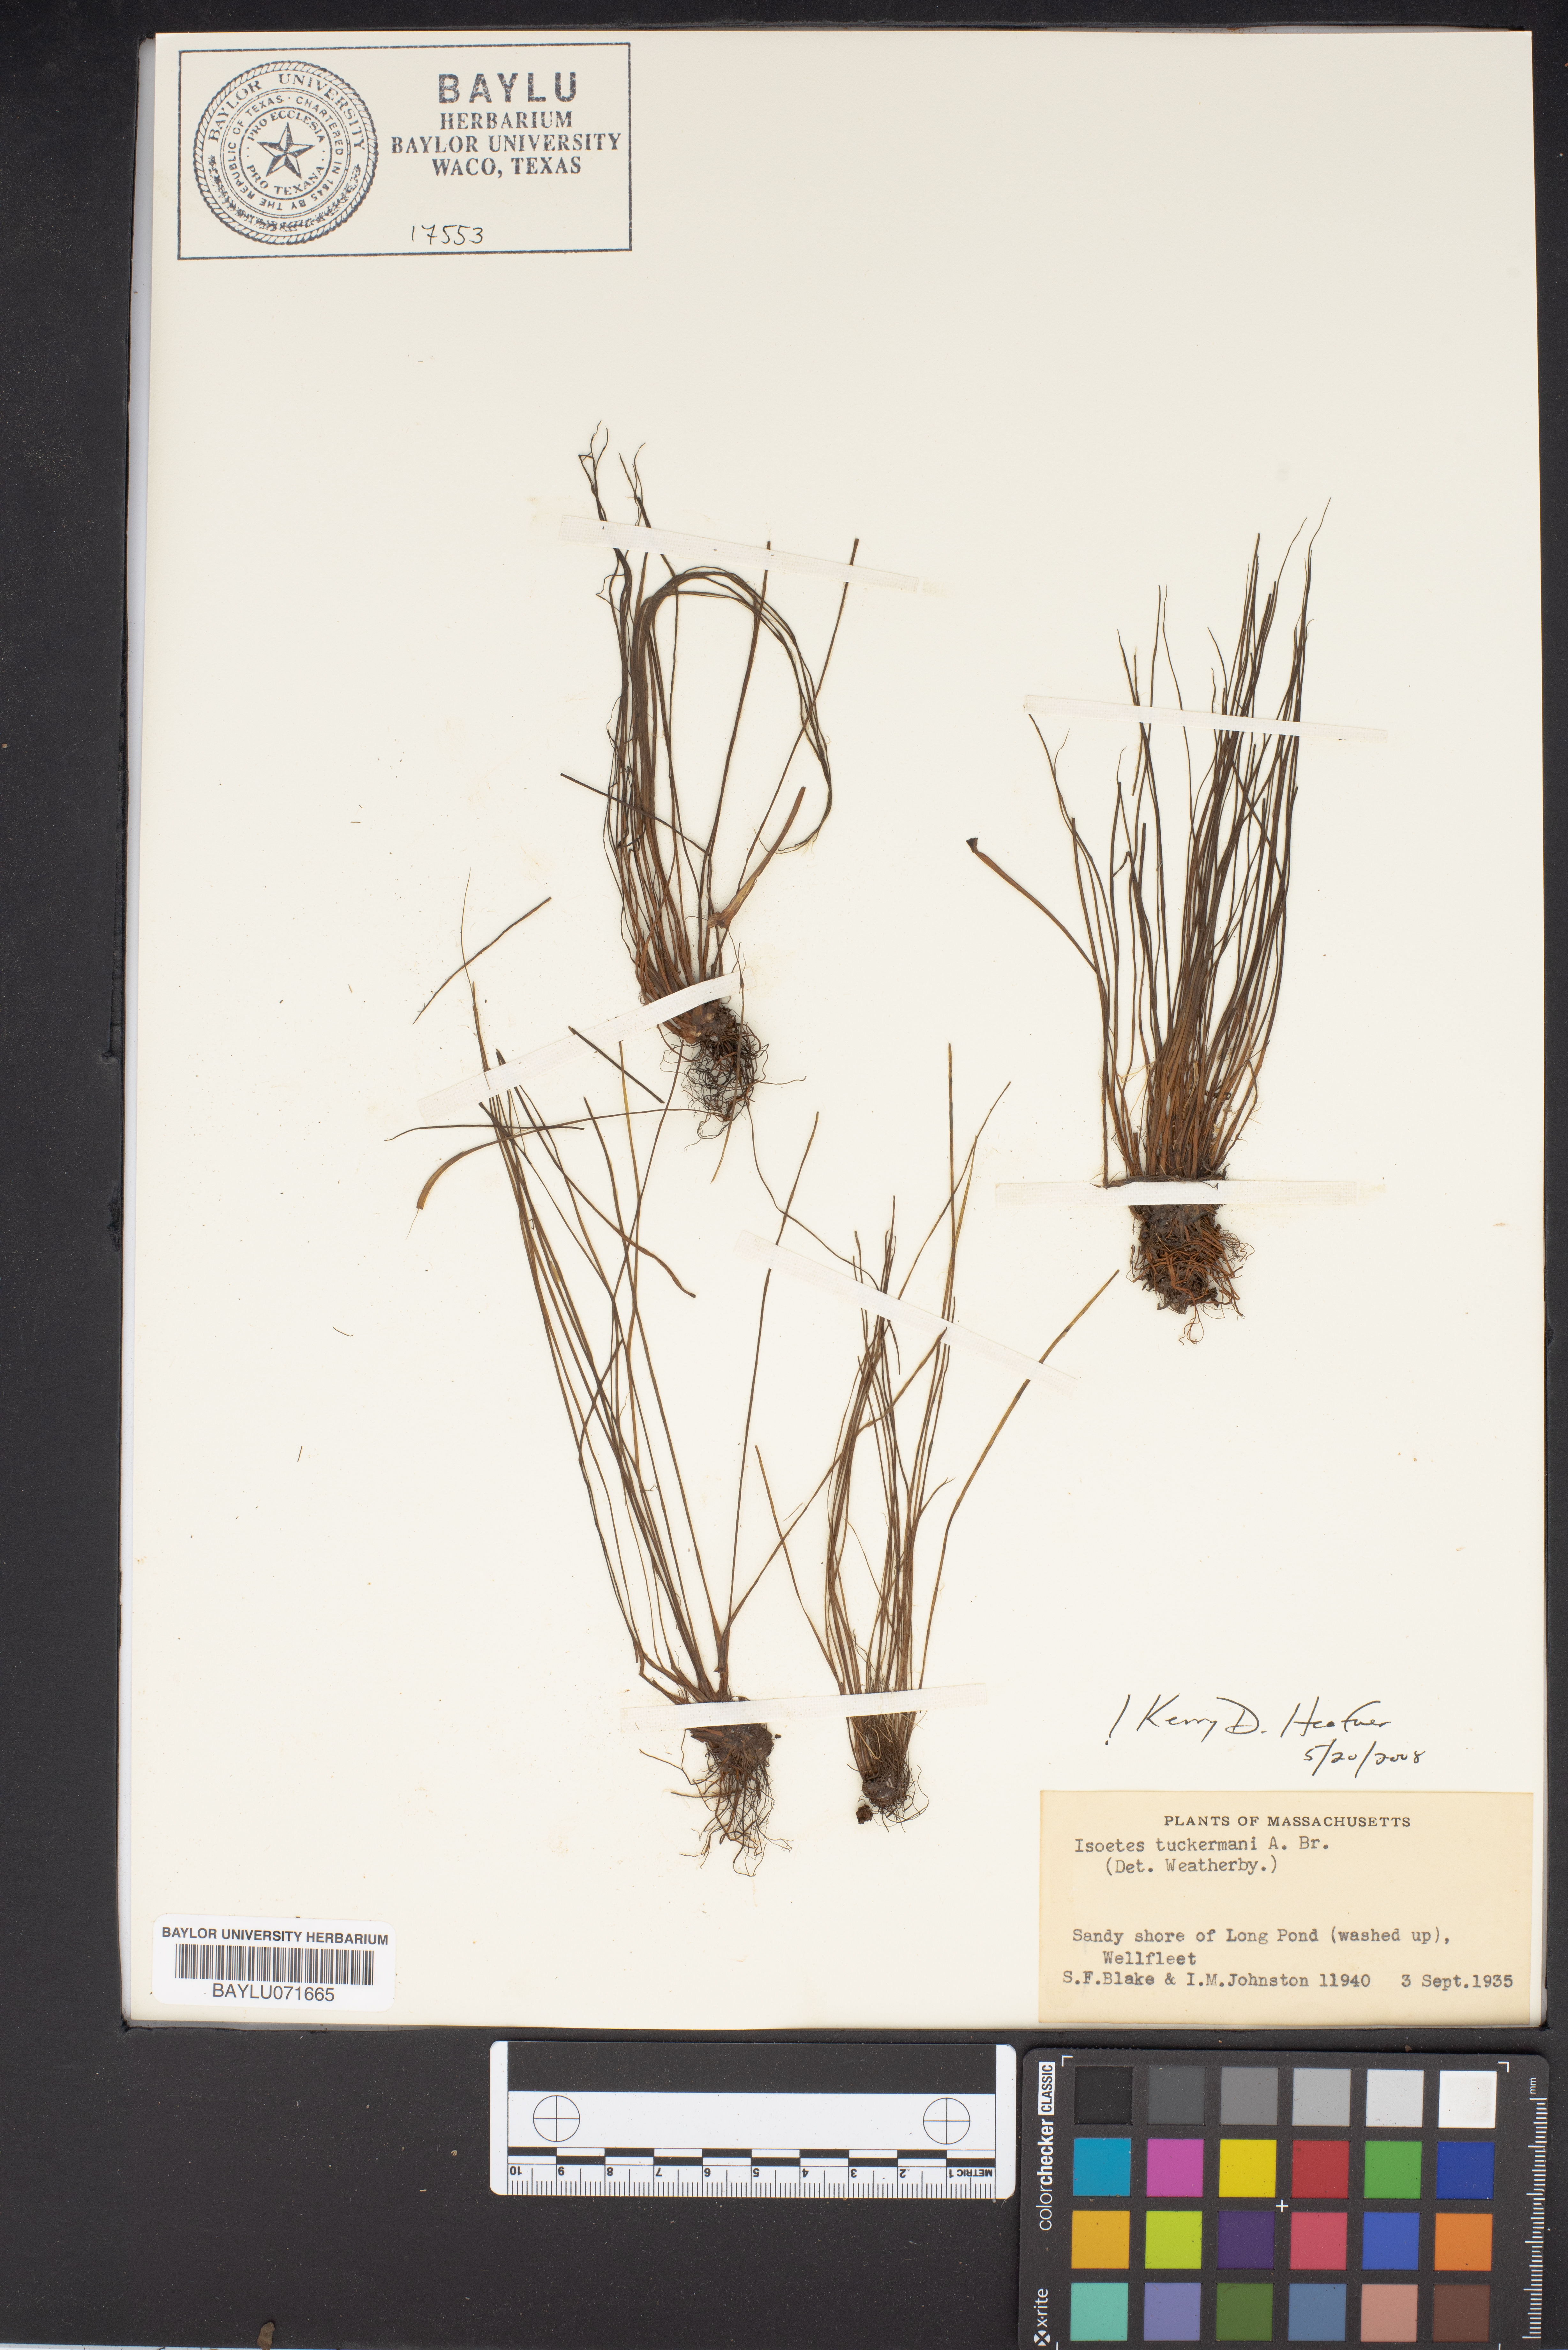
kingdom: Plantae
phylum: Tracheophyta
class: Lycopodiopsida
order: Isoetales
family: Isoetaceae
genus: Isoetes
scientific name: Isoetes tuckermanii
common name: Tuckerman's quillwort
